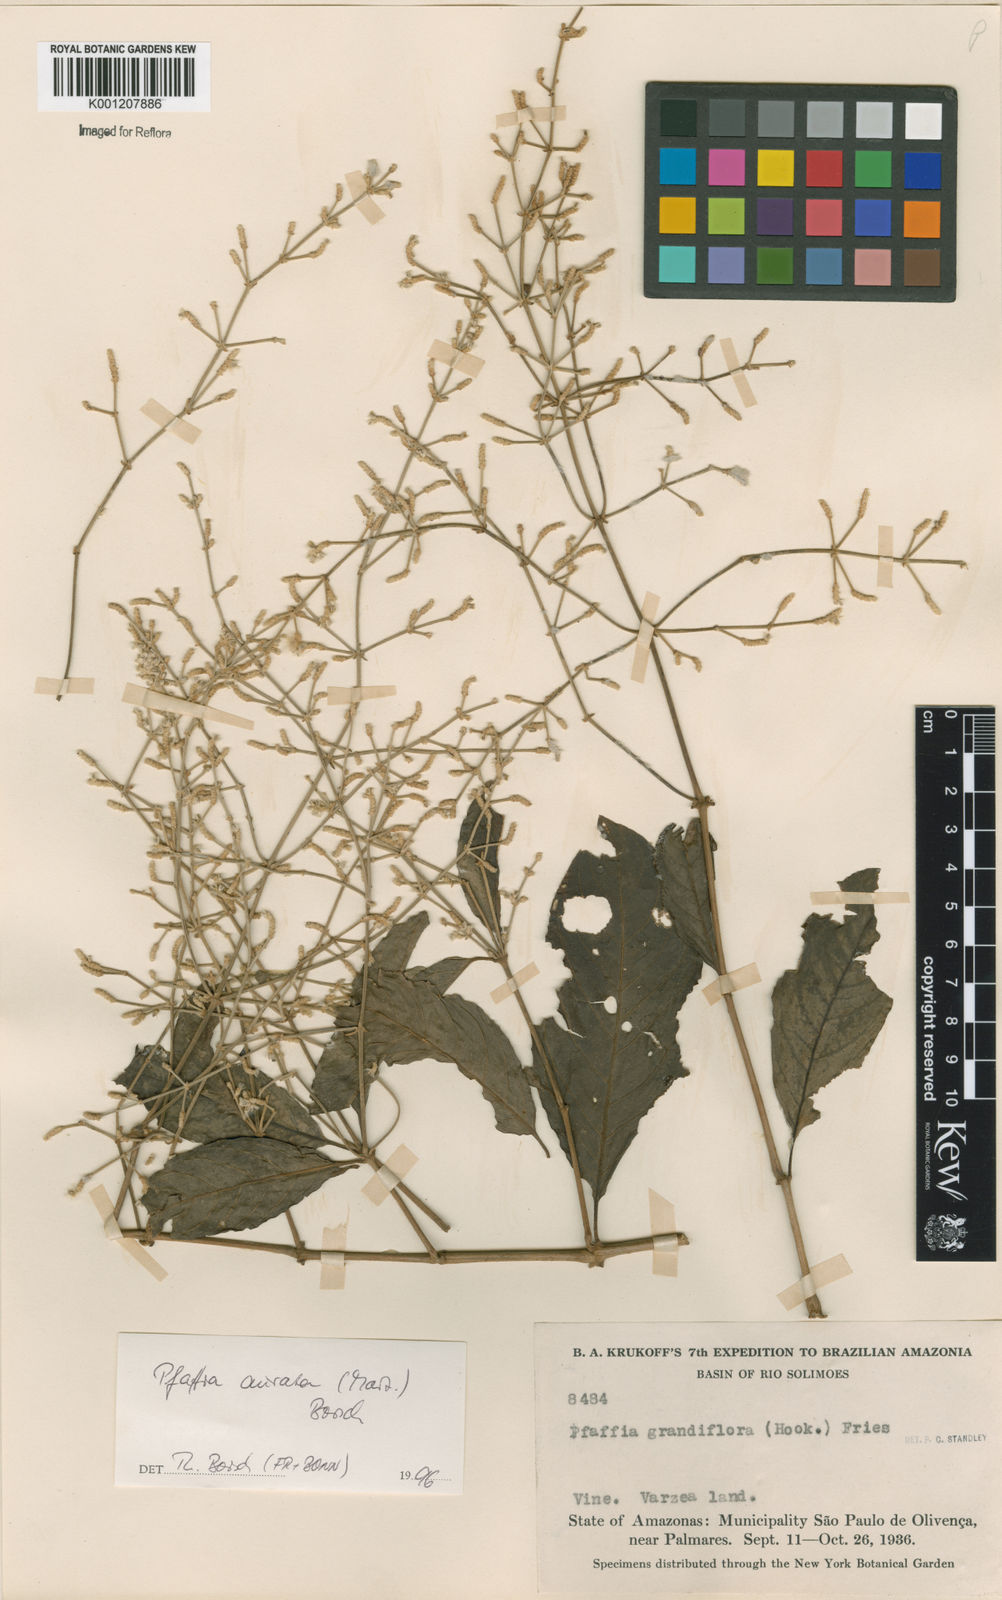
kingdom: Plantae
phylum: Tracheophyta
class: Magnoliopsida
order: Caryophyllales
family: Amaranthaceae
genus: Pedersenia
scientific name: Pedersenia argentata
